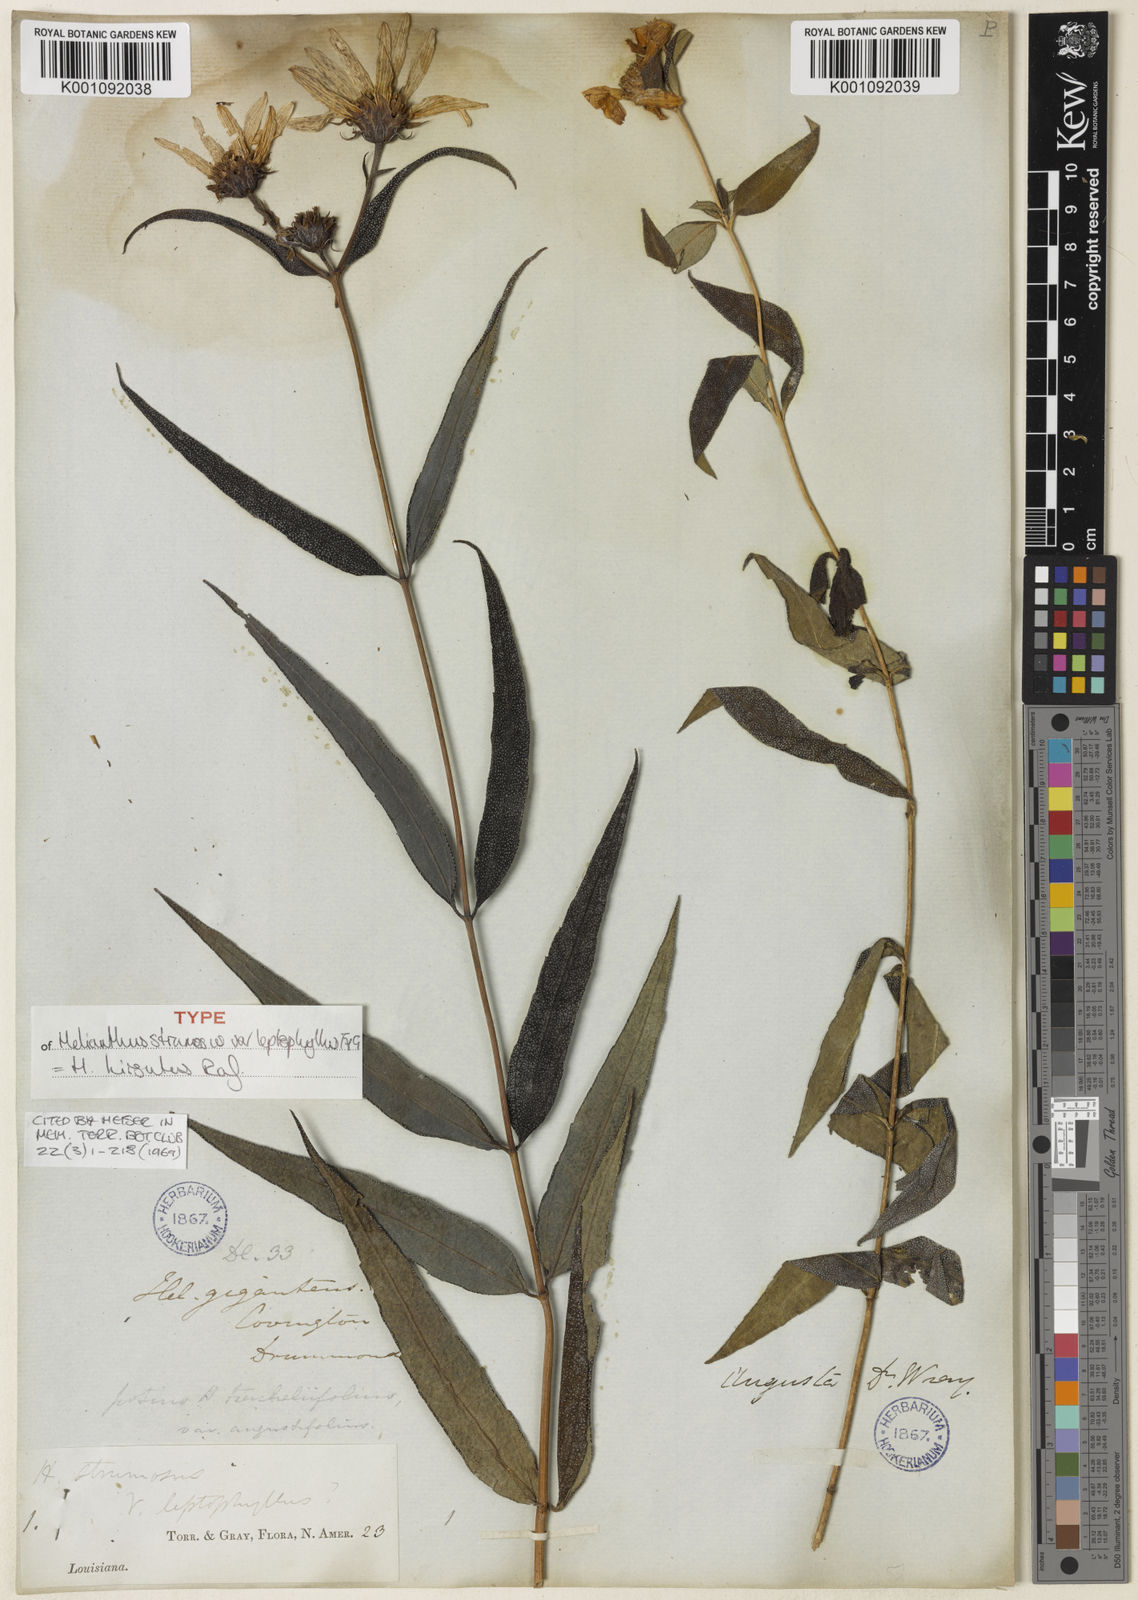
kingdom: Plantae
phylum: Tracheophyta
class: Magnoliopsida
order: Asterales
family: Asteraceae
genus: Helianthus
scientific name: Helianthus hirsutus
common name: Hairy sunflower
